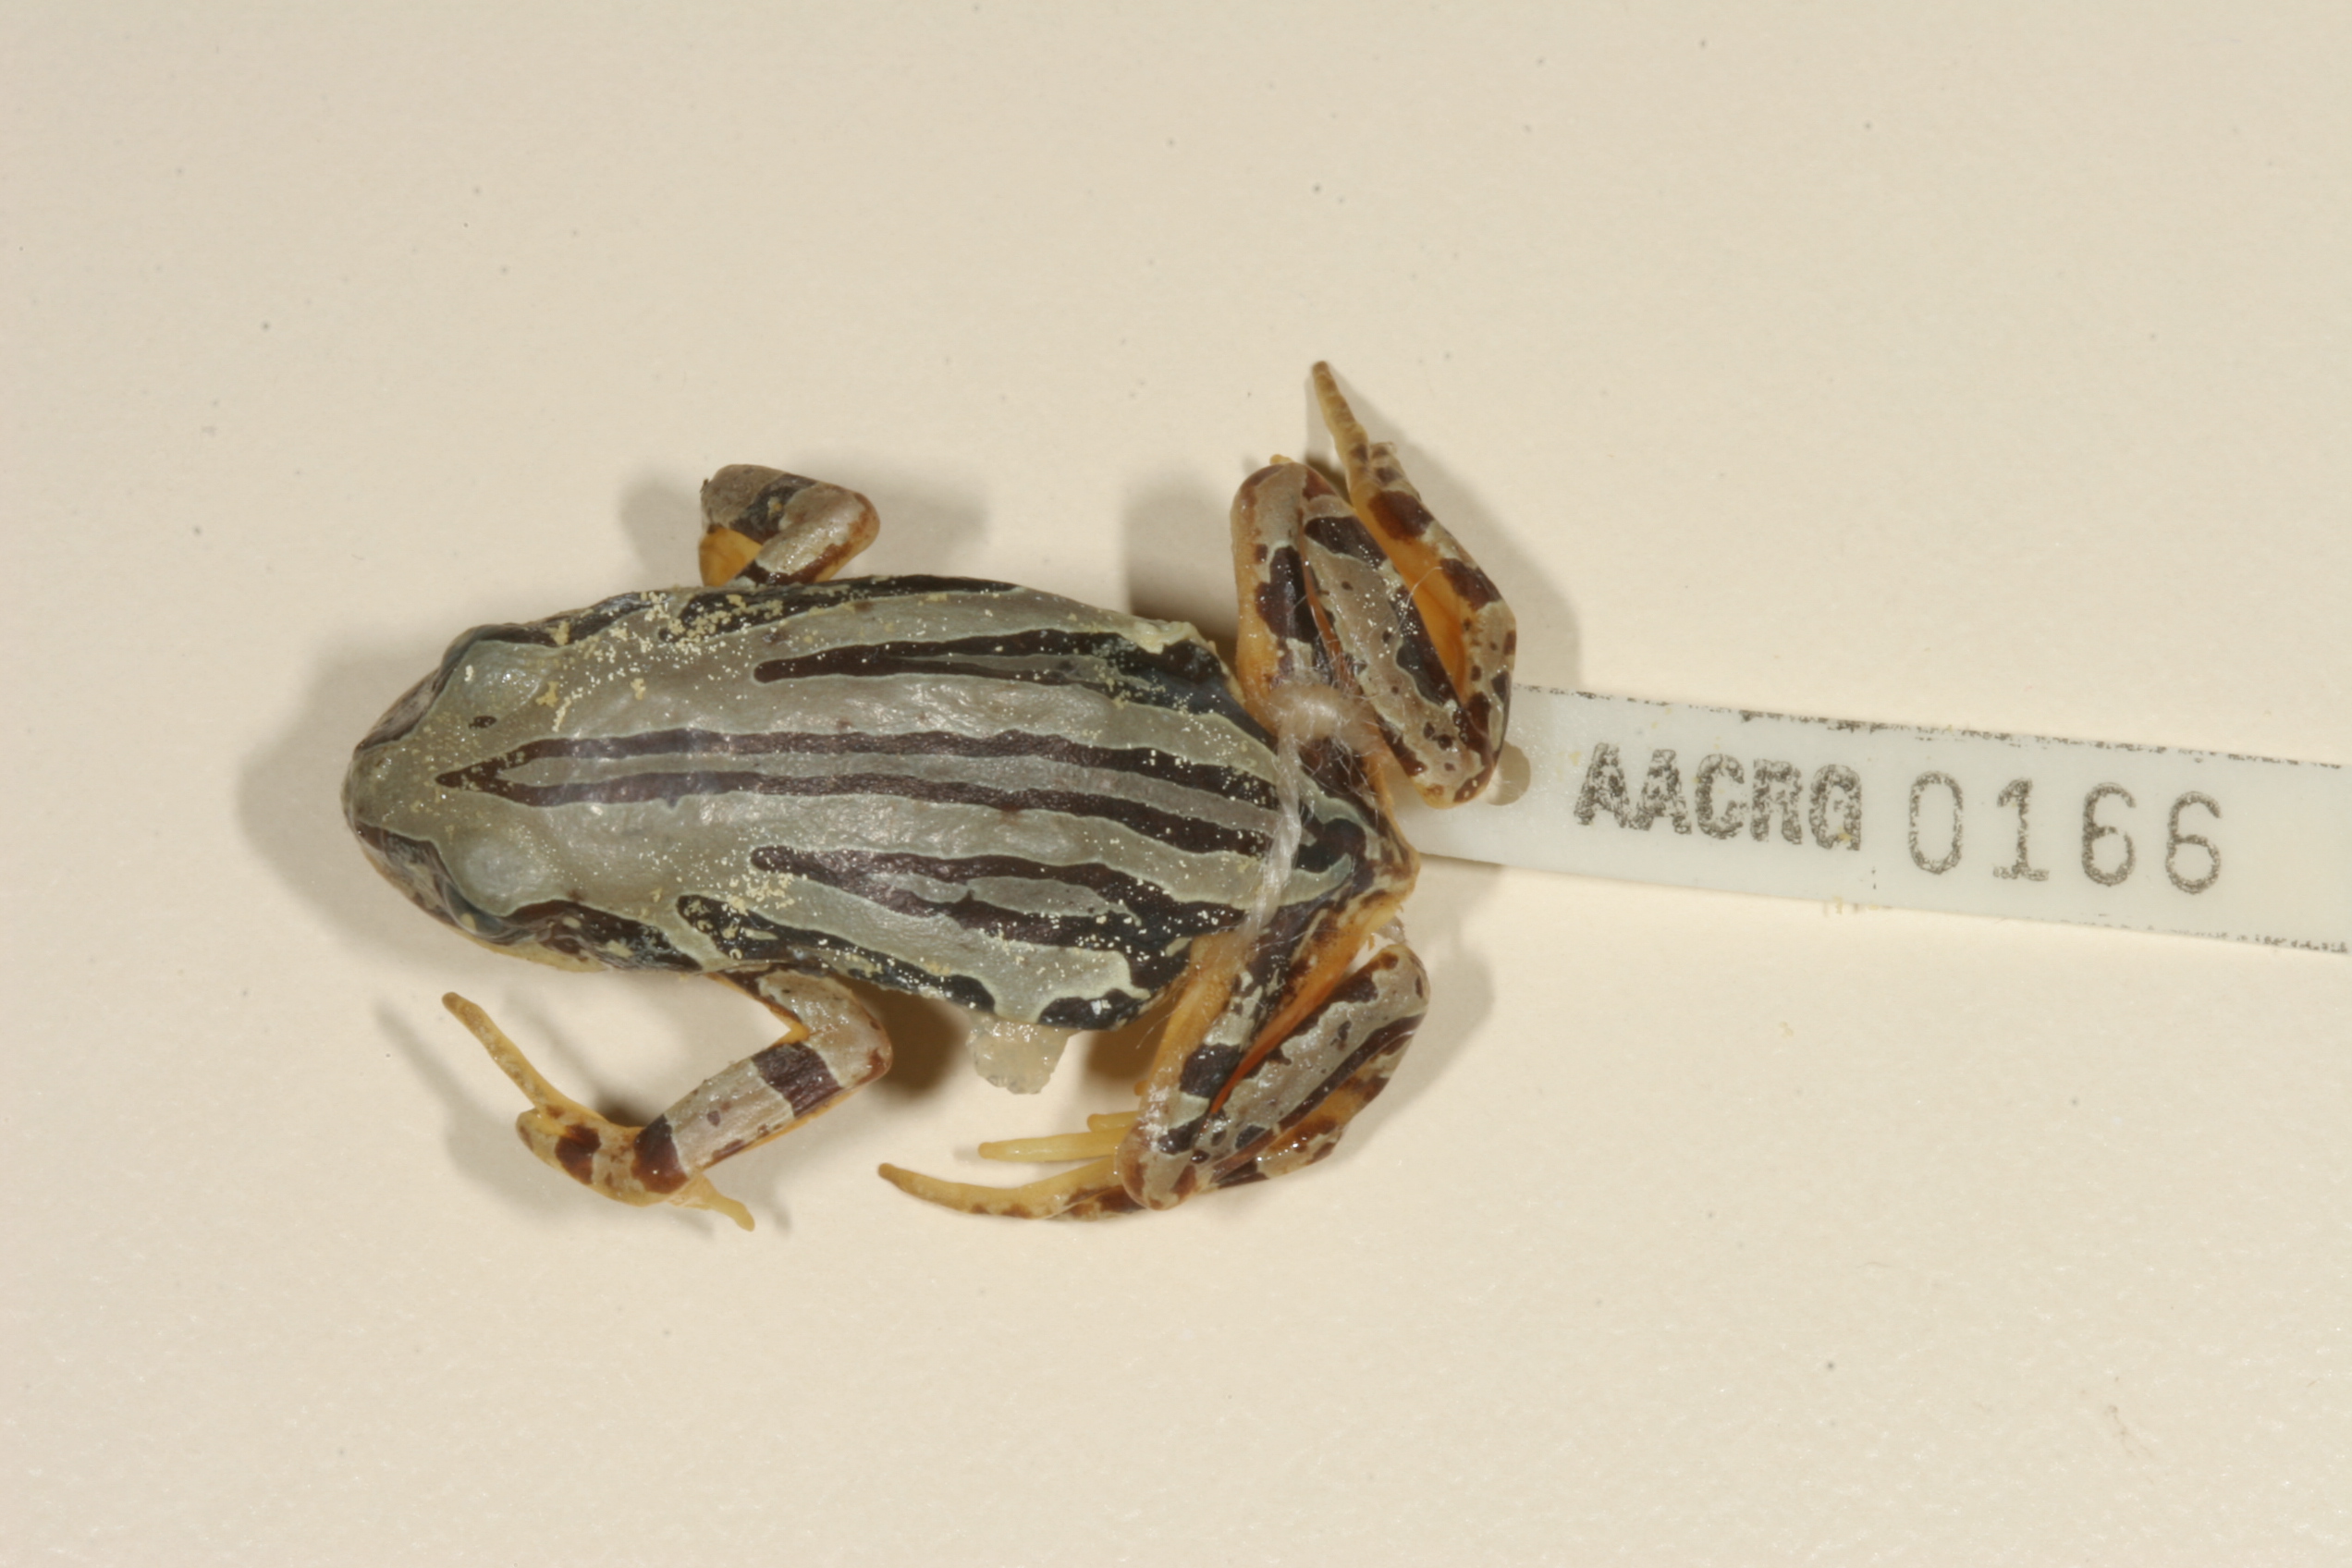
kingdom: Animalia
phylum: Chordata
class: Amphibia
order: Anura
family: Hyperoliidae
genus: Semnodactylus
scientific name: Semnodactylus wealii
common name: Weal's frog
